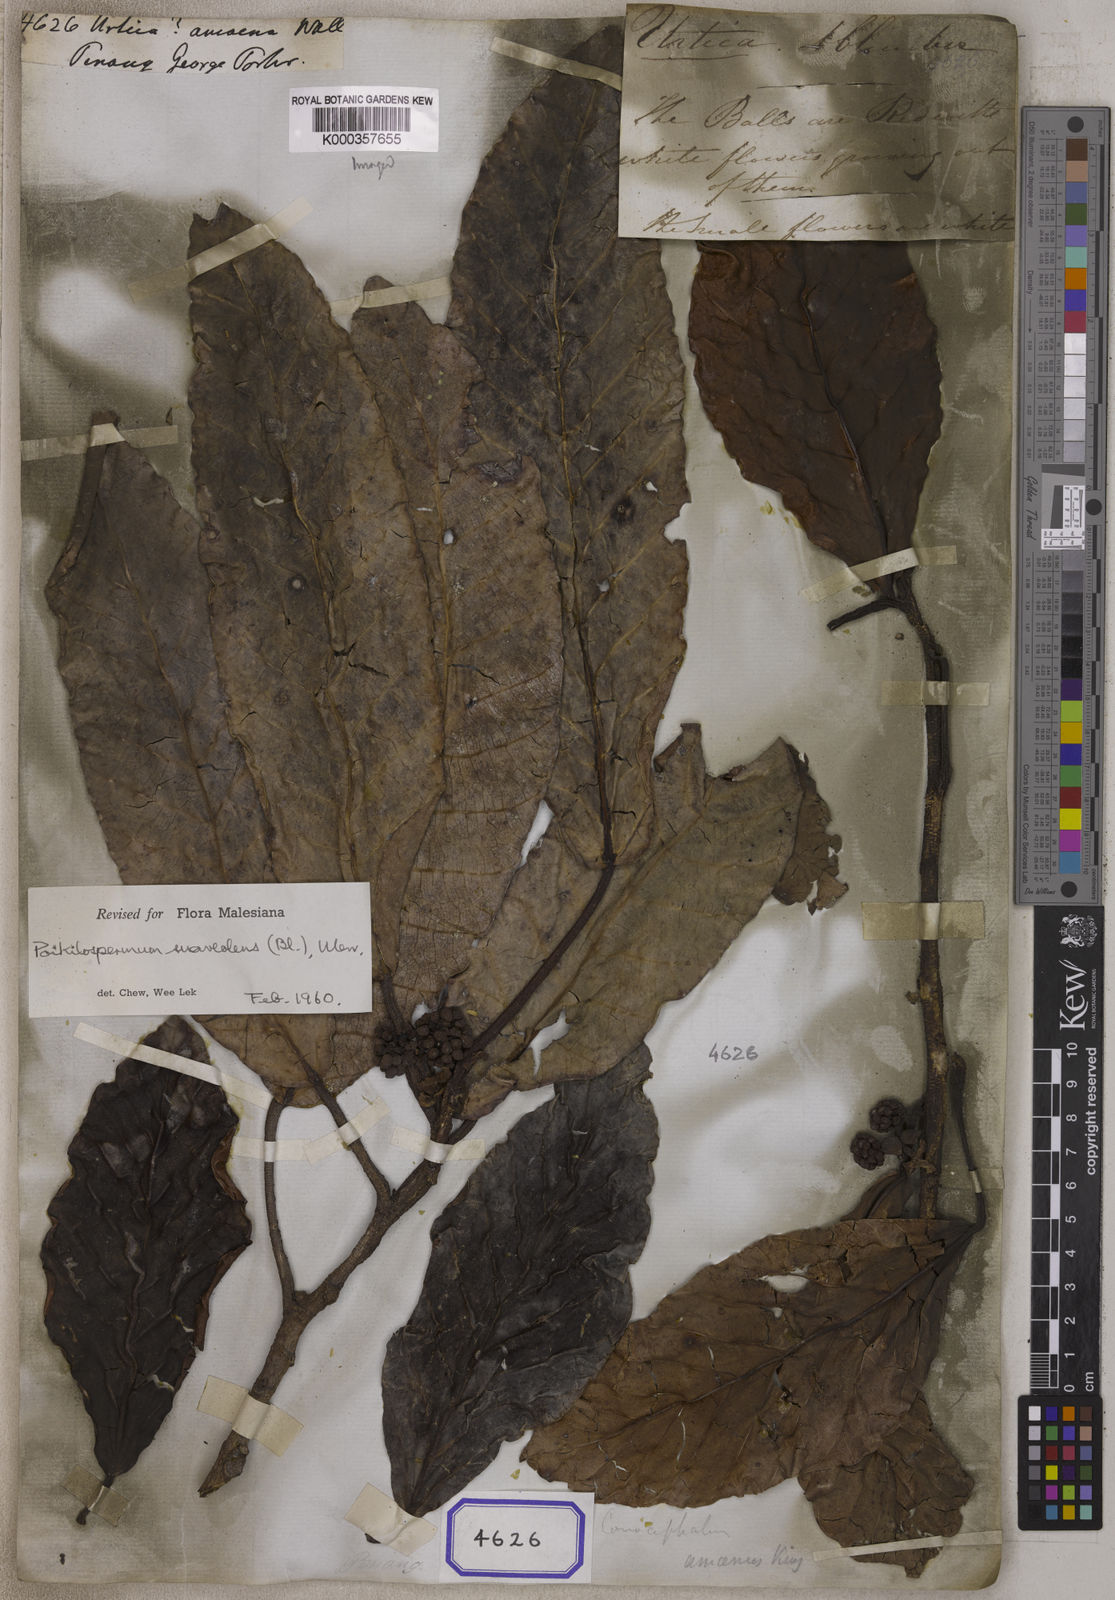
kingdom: Plantae
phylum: Tracheophyta
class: Magnoliopsida
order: Rosales
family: Urticaceae
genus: Urtica
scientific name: Urtica amoena
